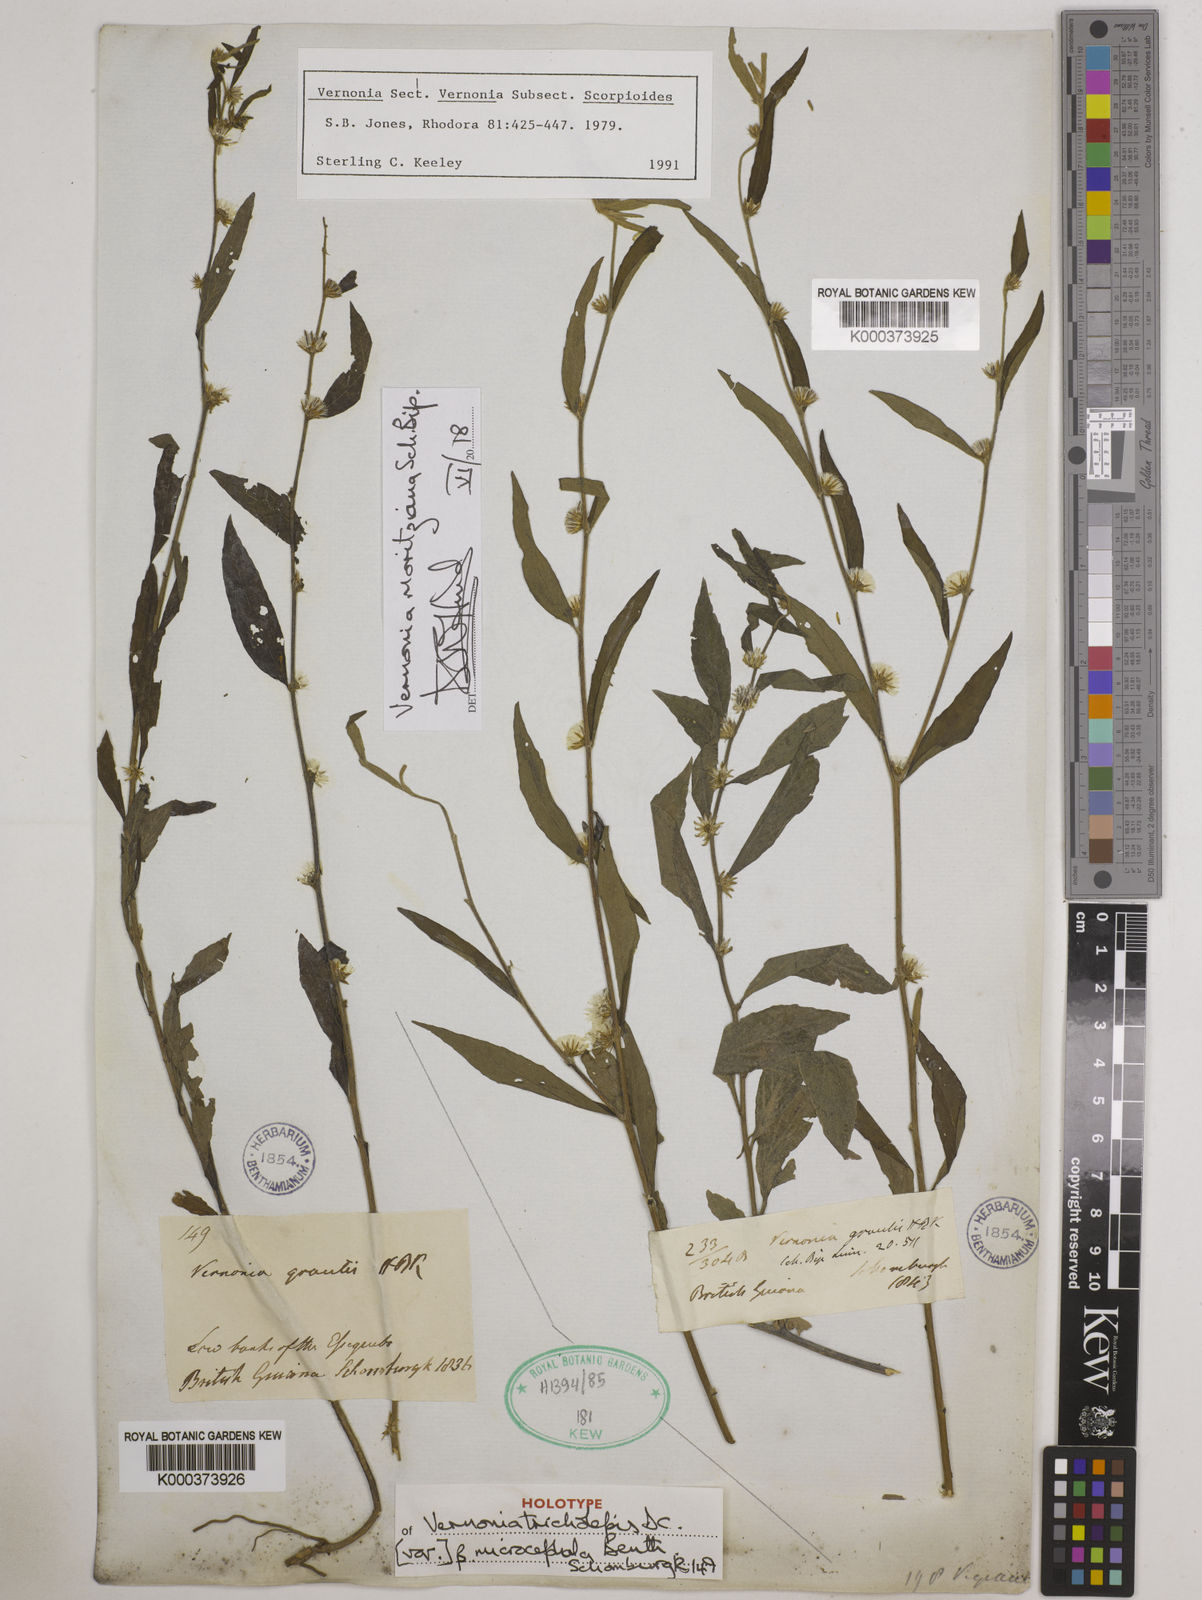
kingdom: Plantae
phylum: Tracheophyta
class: Magnoliopsida
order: Asterales
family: Asteraceae
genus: Lepidaploa
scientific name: Lepidaploa gracilis
